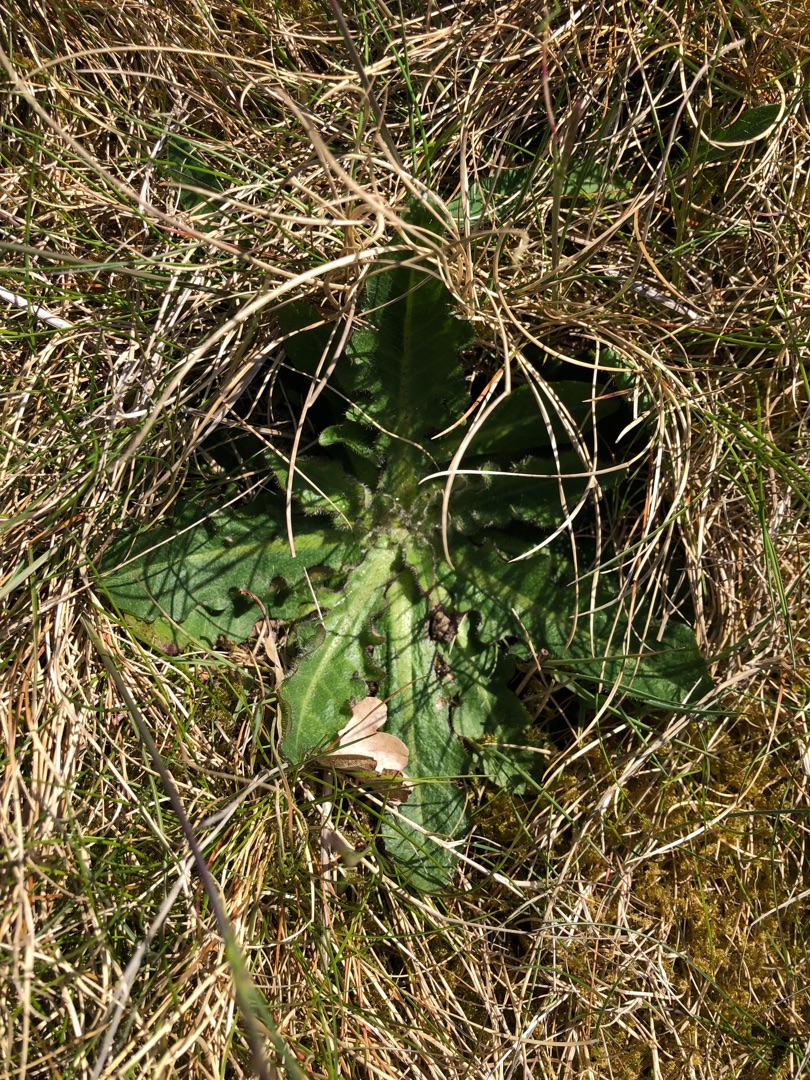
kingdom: Plantae
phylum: Tracheophyta
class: Magnoliopsida
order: Asterales
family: Asteraceae
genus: Hypochaeris
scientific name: Hypochaeris radicata
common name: Almindelig kongepen
